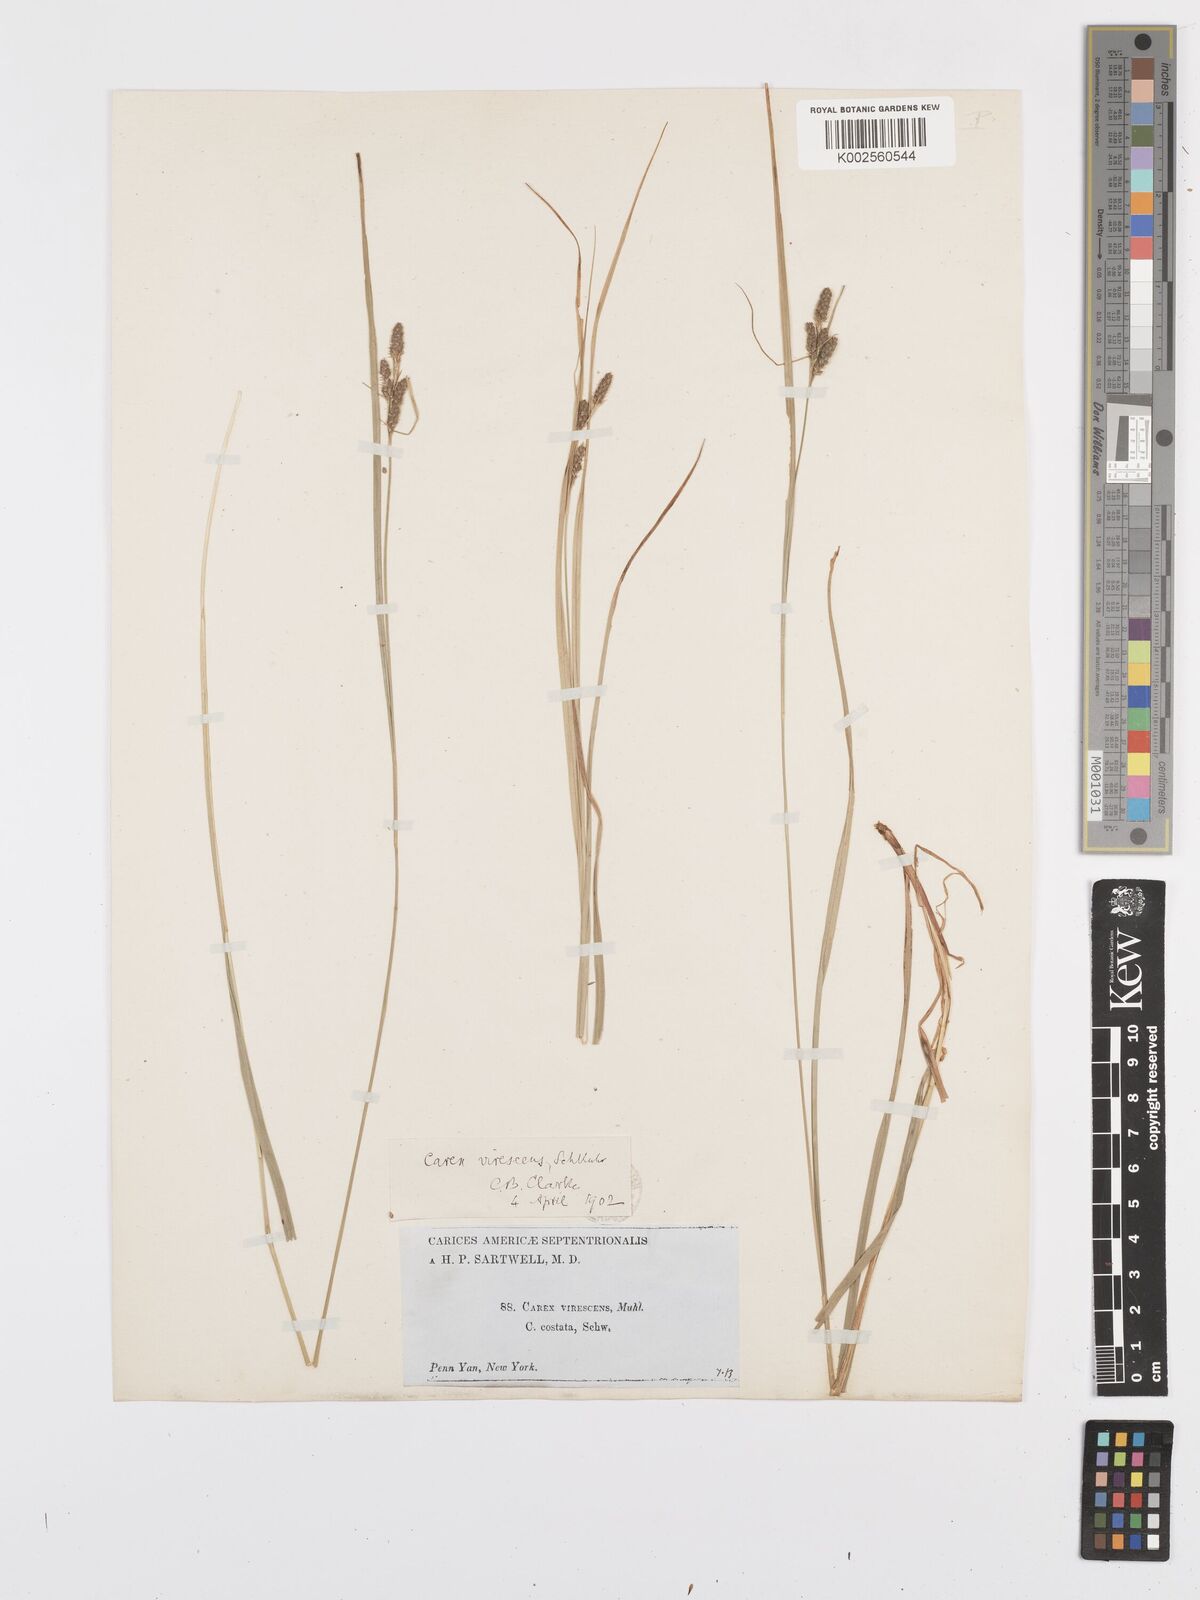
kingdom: Plantae
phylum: Tracheophyta
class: Liliopsida
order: Poales
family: Cyperaceae
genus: Carex
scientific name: Carex virescens
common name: Ribbed sedge
